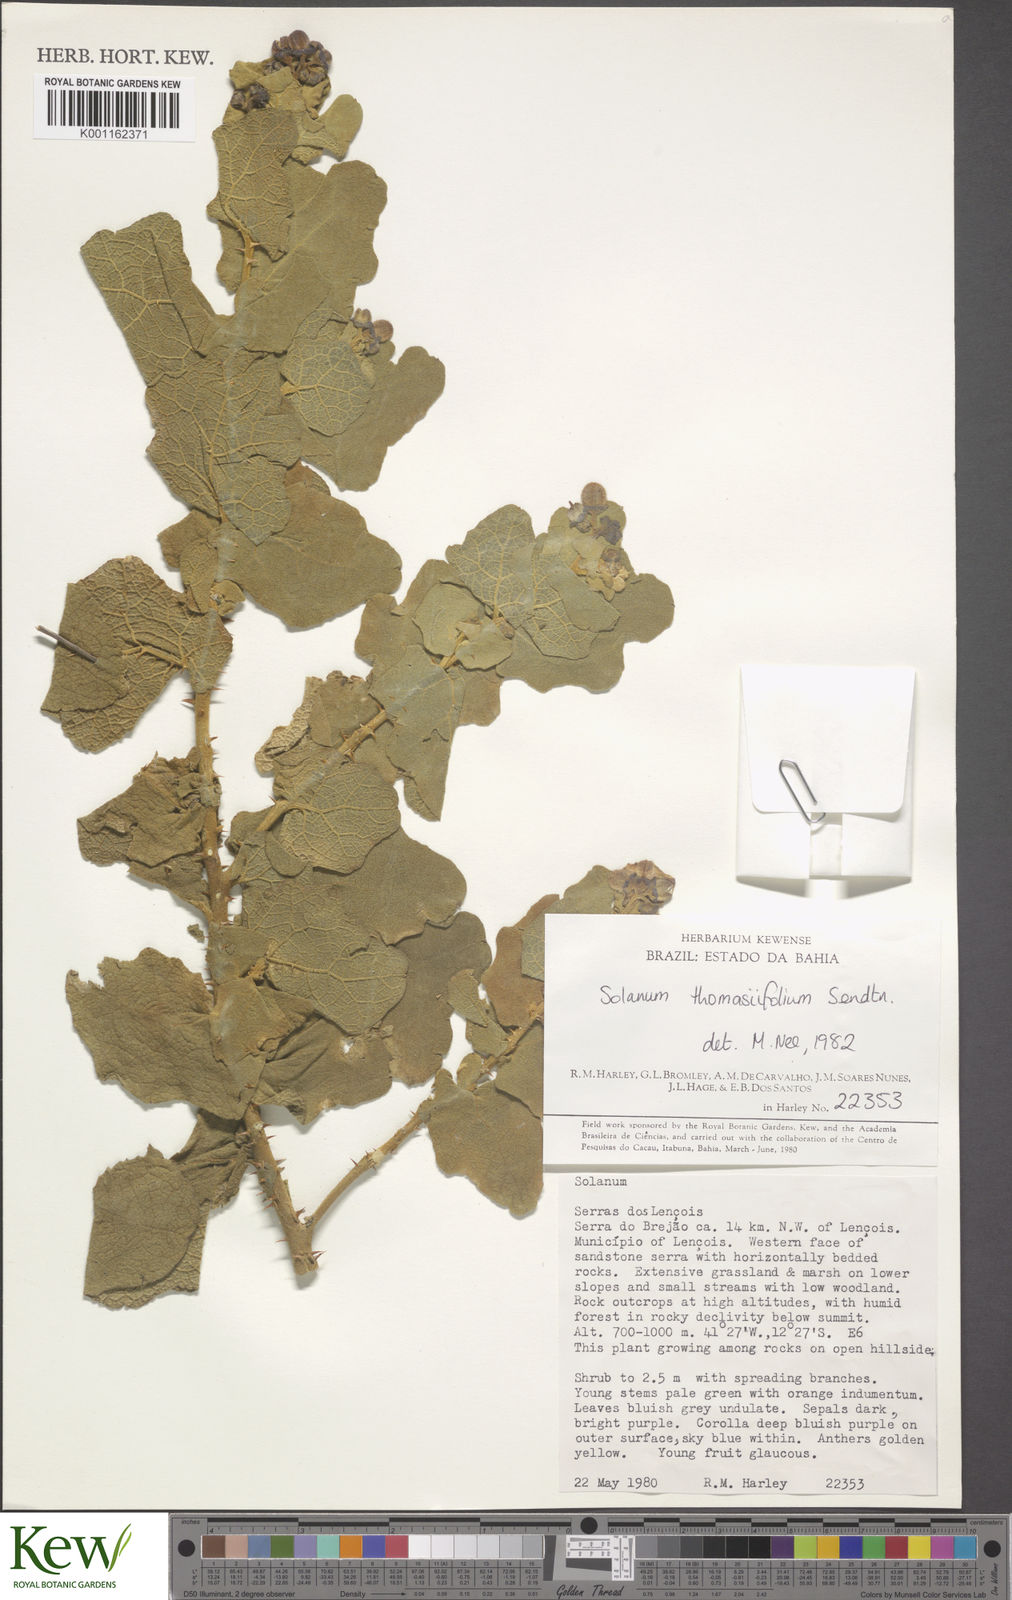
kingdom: Plantae
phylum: Tracheophyta
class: Magnoliopsida
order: Solanales
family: Solanaceae
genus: Solanum
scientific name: Solanum thomasiifolium
